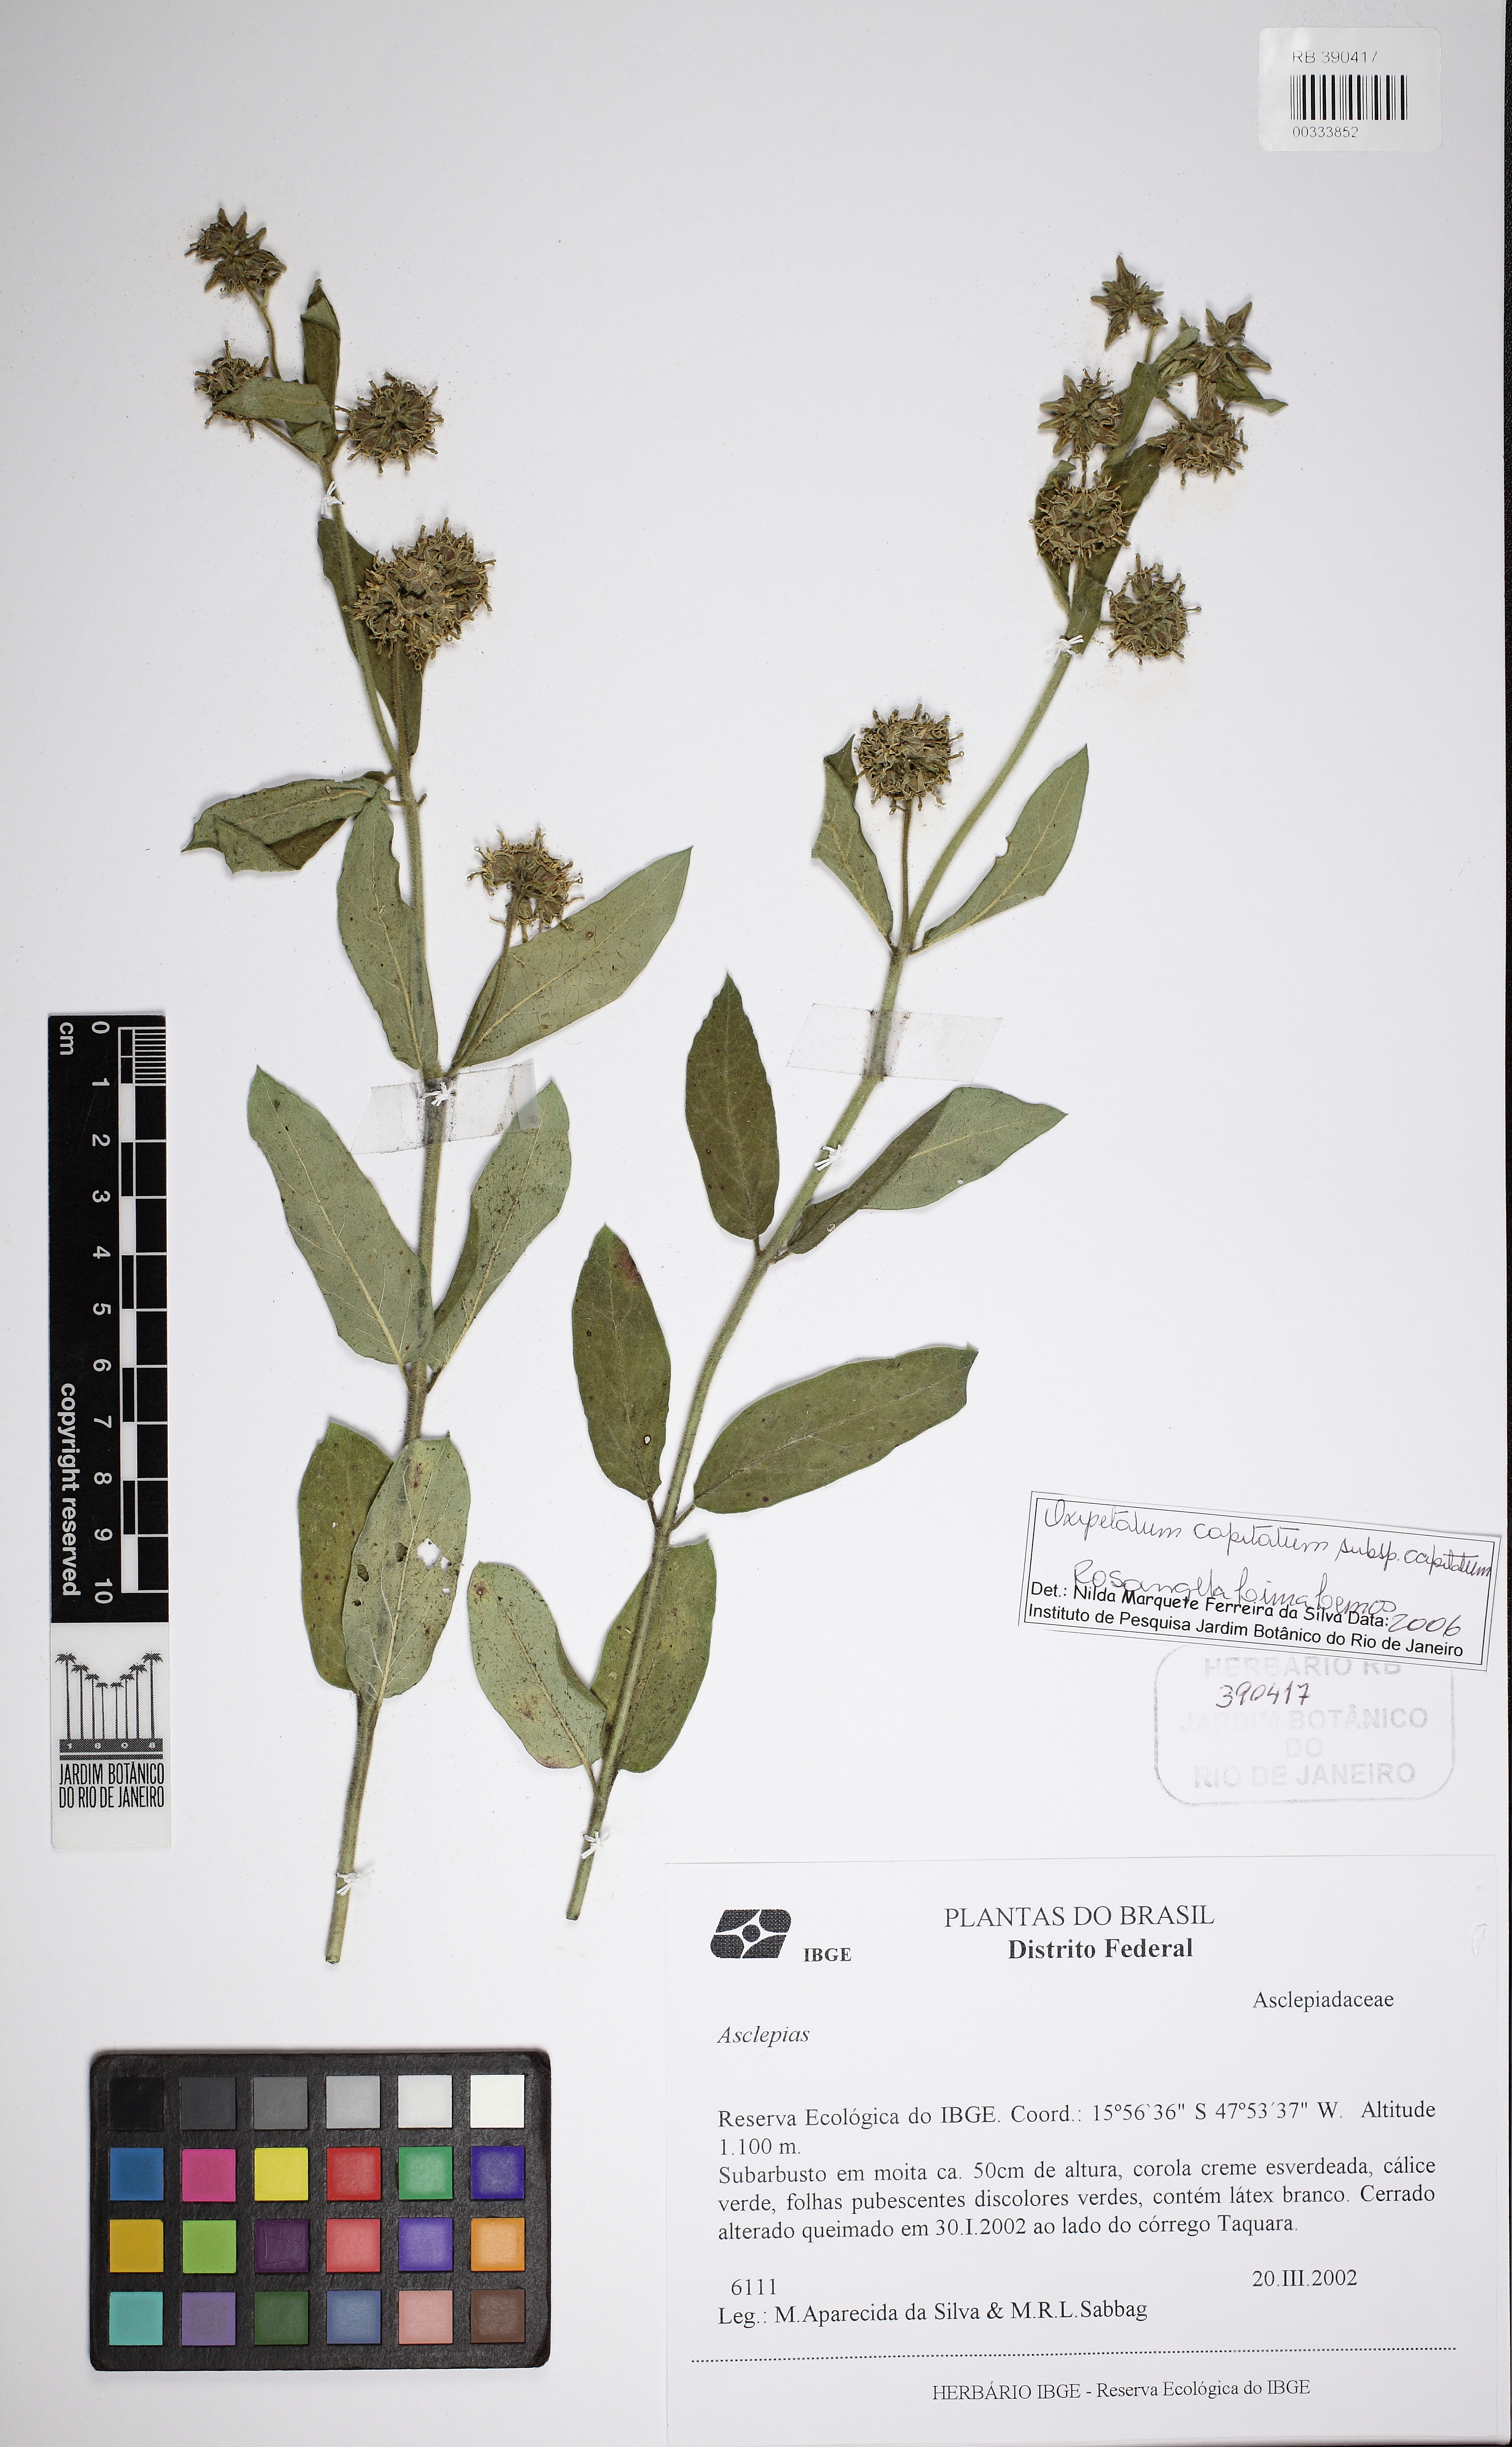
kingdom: Plantae
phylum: Tracheophyta
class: Magnoliopsida
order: Gentianales
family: Apocynaceae
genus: Asclepias
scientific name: Asclepias
